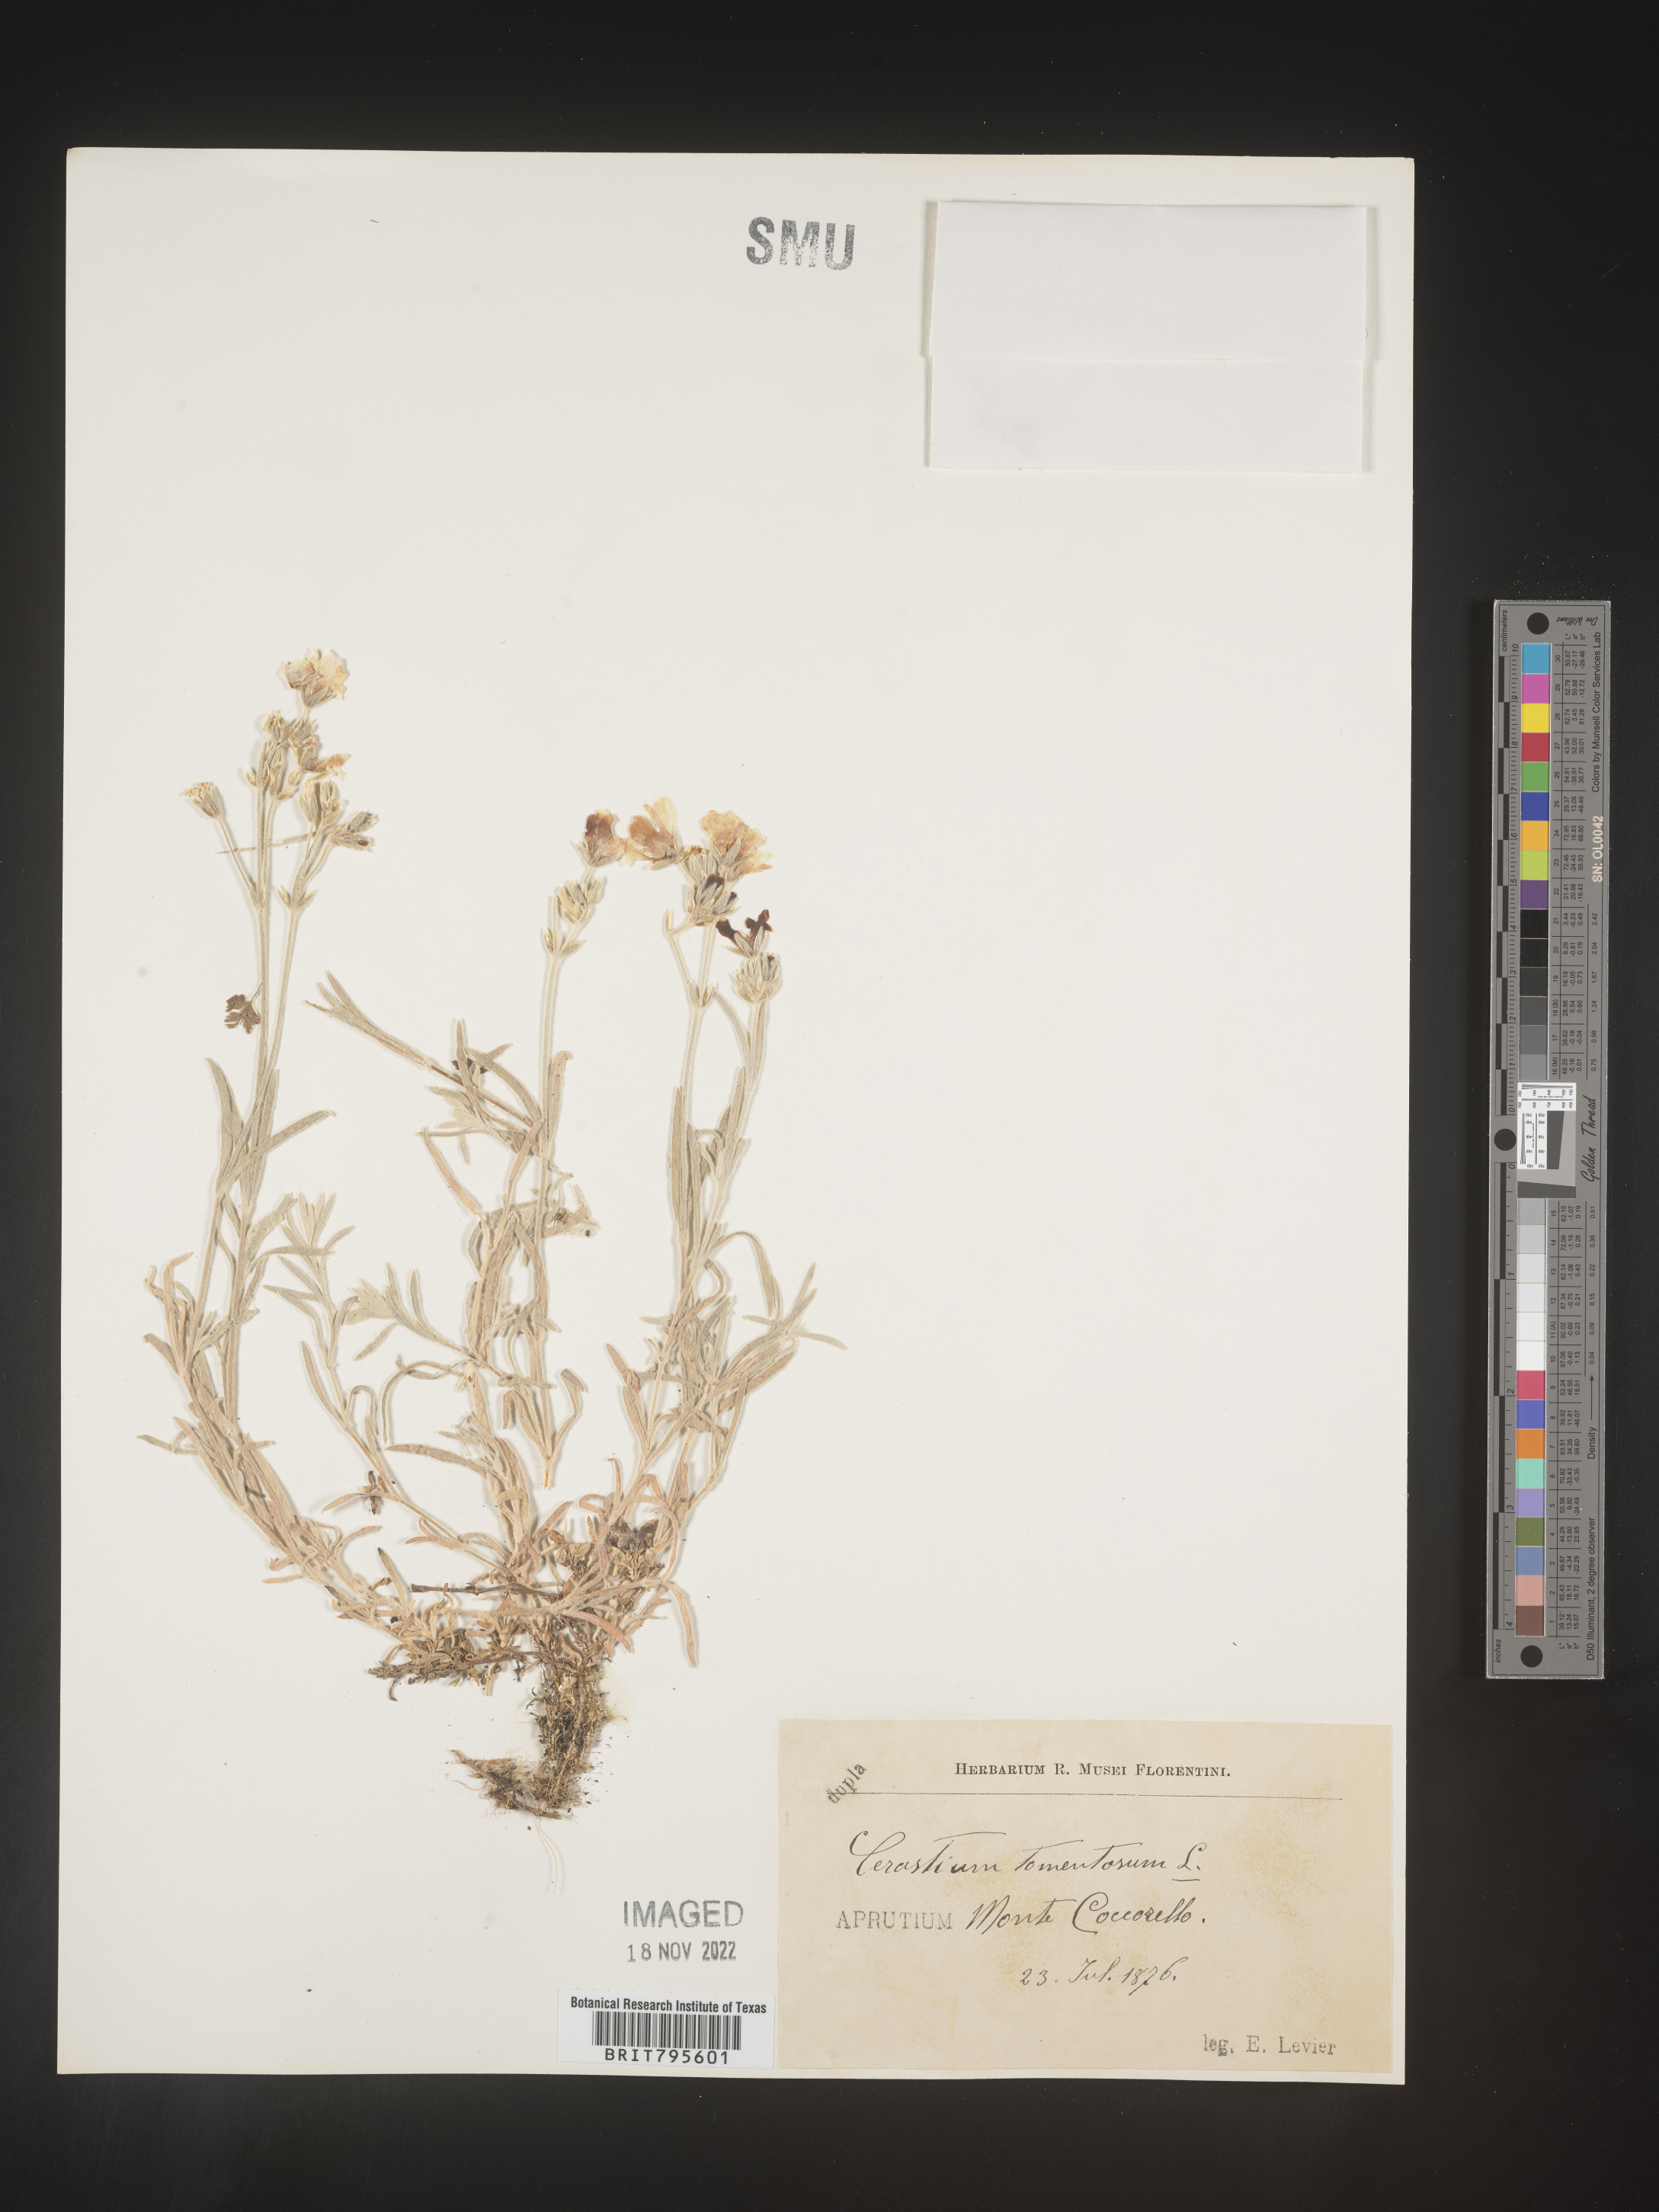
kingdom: Plantae
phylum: Tracheophyta
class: Magnoliopsida
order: Caryophyllales
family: Caryophyllaceae
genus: Cerastium
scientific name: Cerastium
